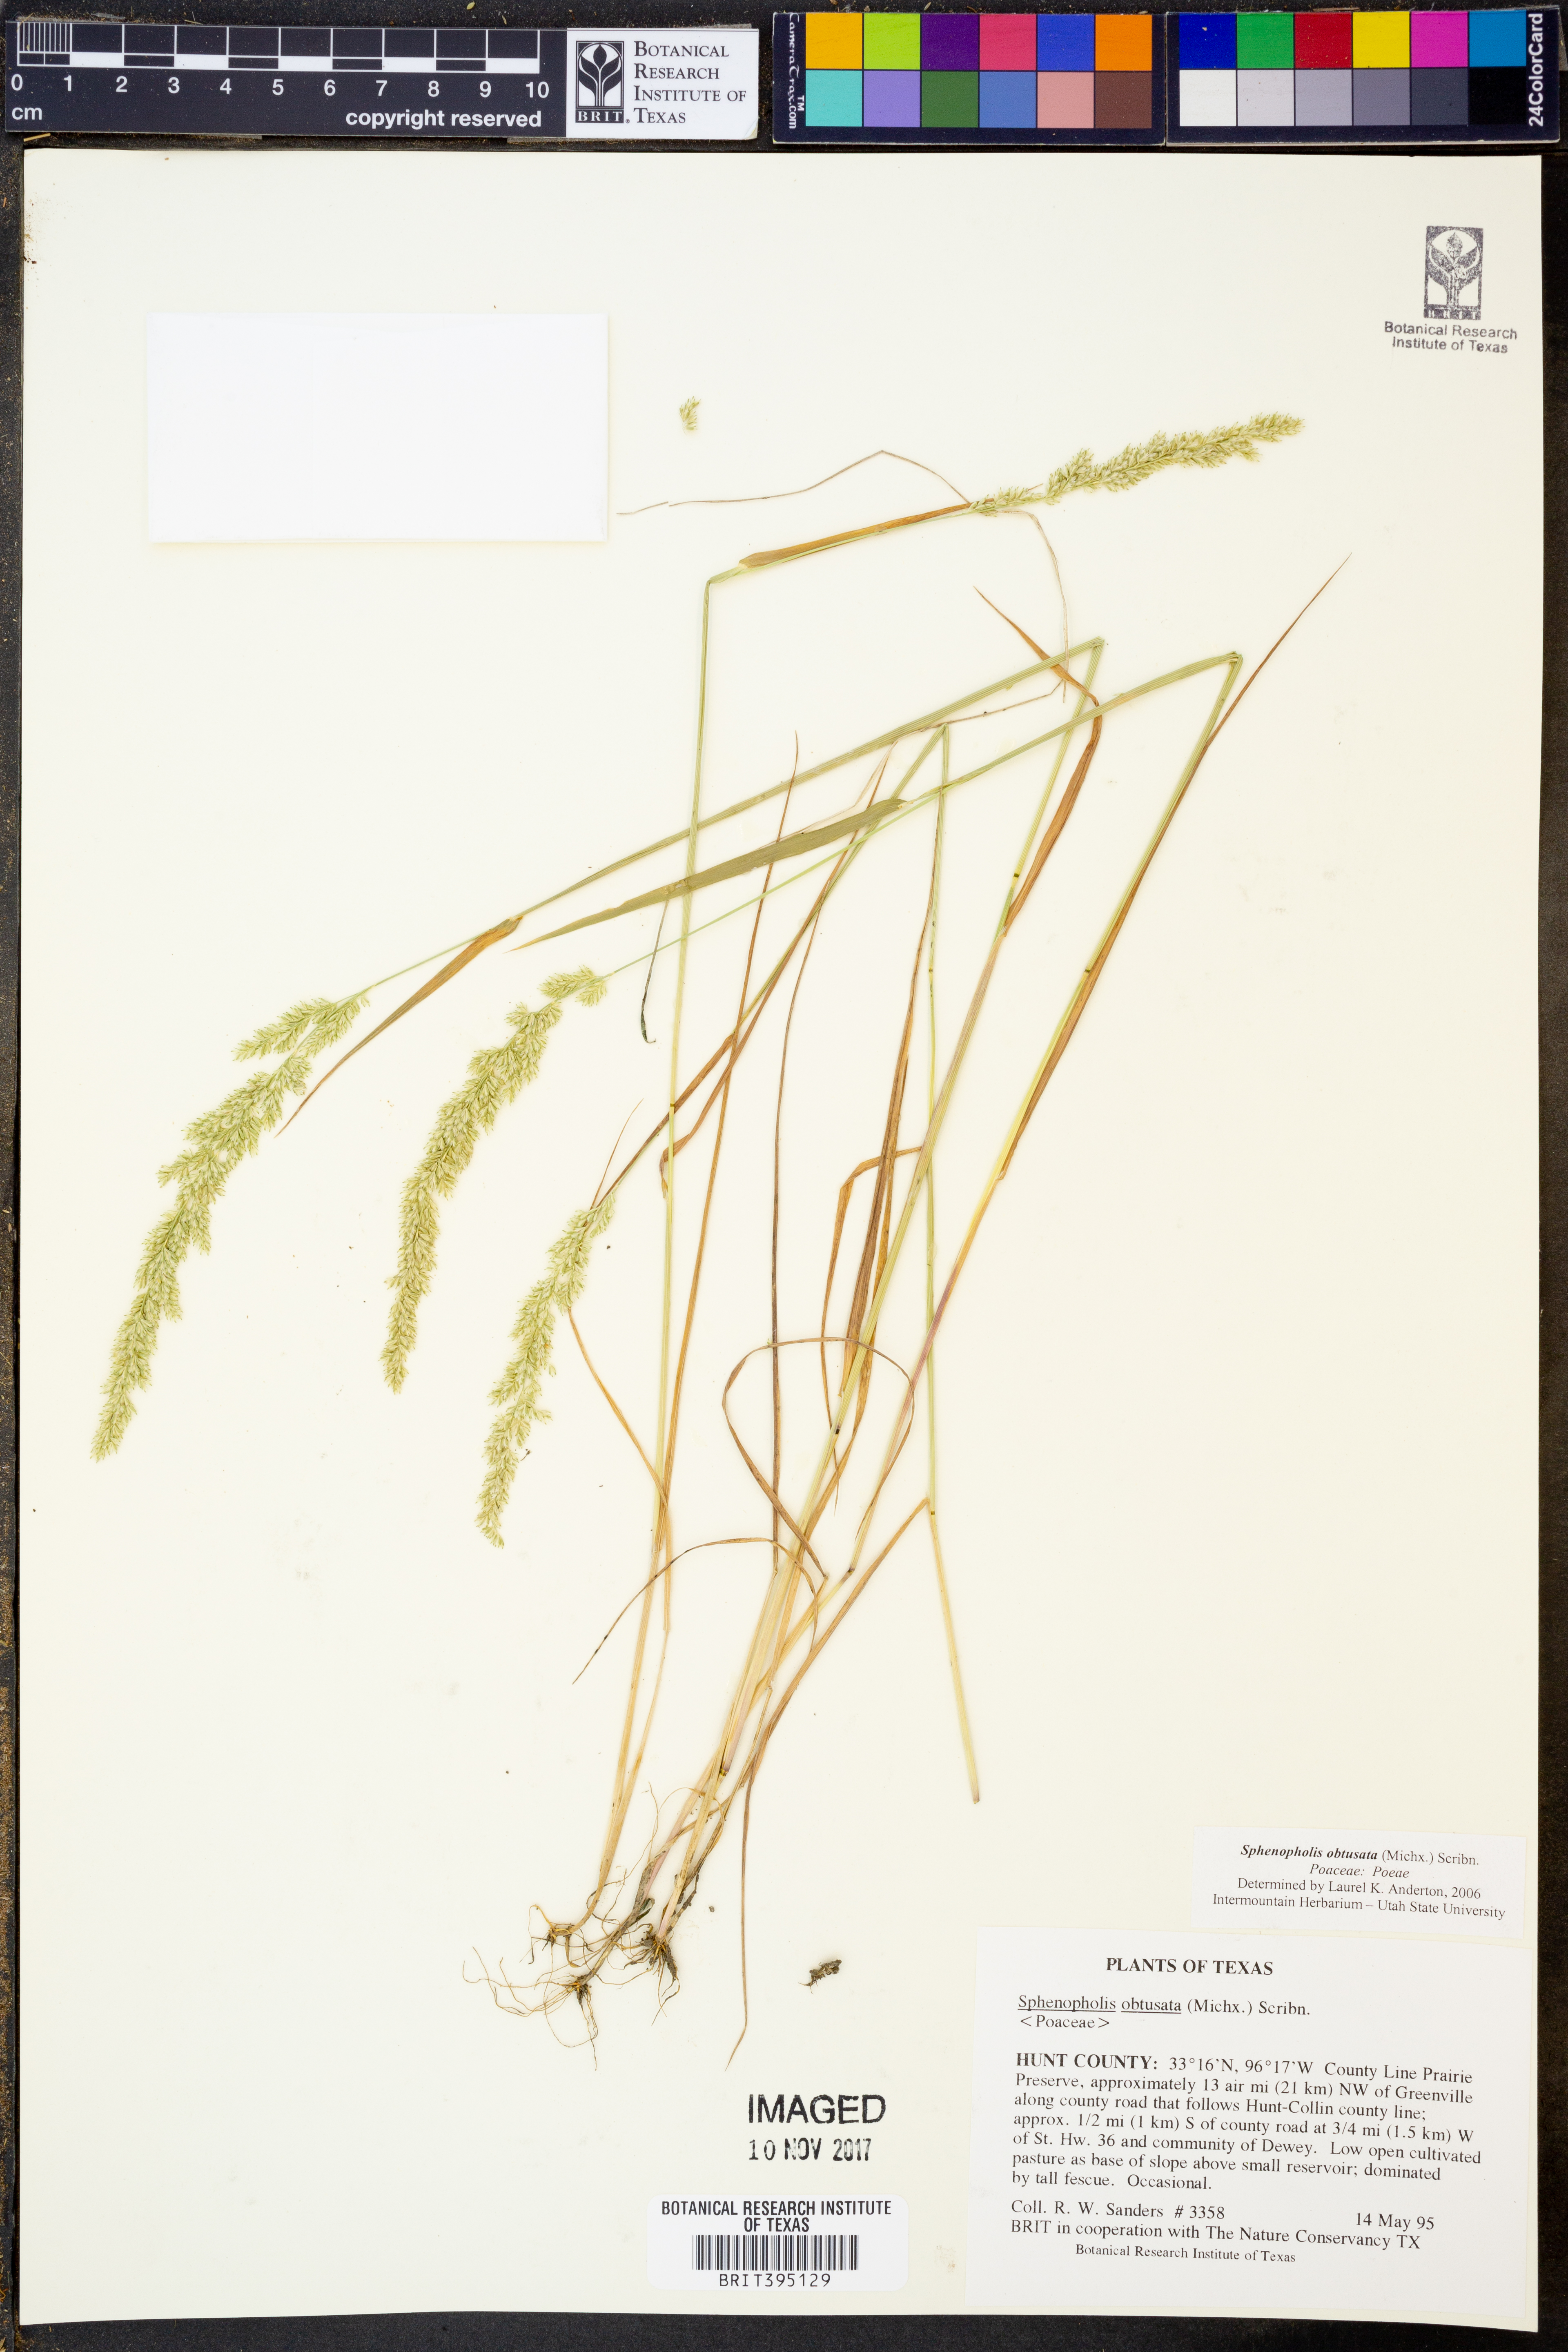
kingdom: Plantae
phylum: Tracheophyta
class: Liliopsida
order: Poales
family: Poaceae
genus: Sphenopholis
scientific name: Sphenopholis obtusata
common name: Prairie grass
